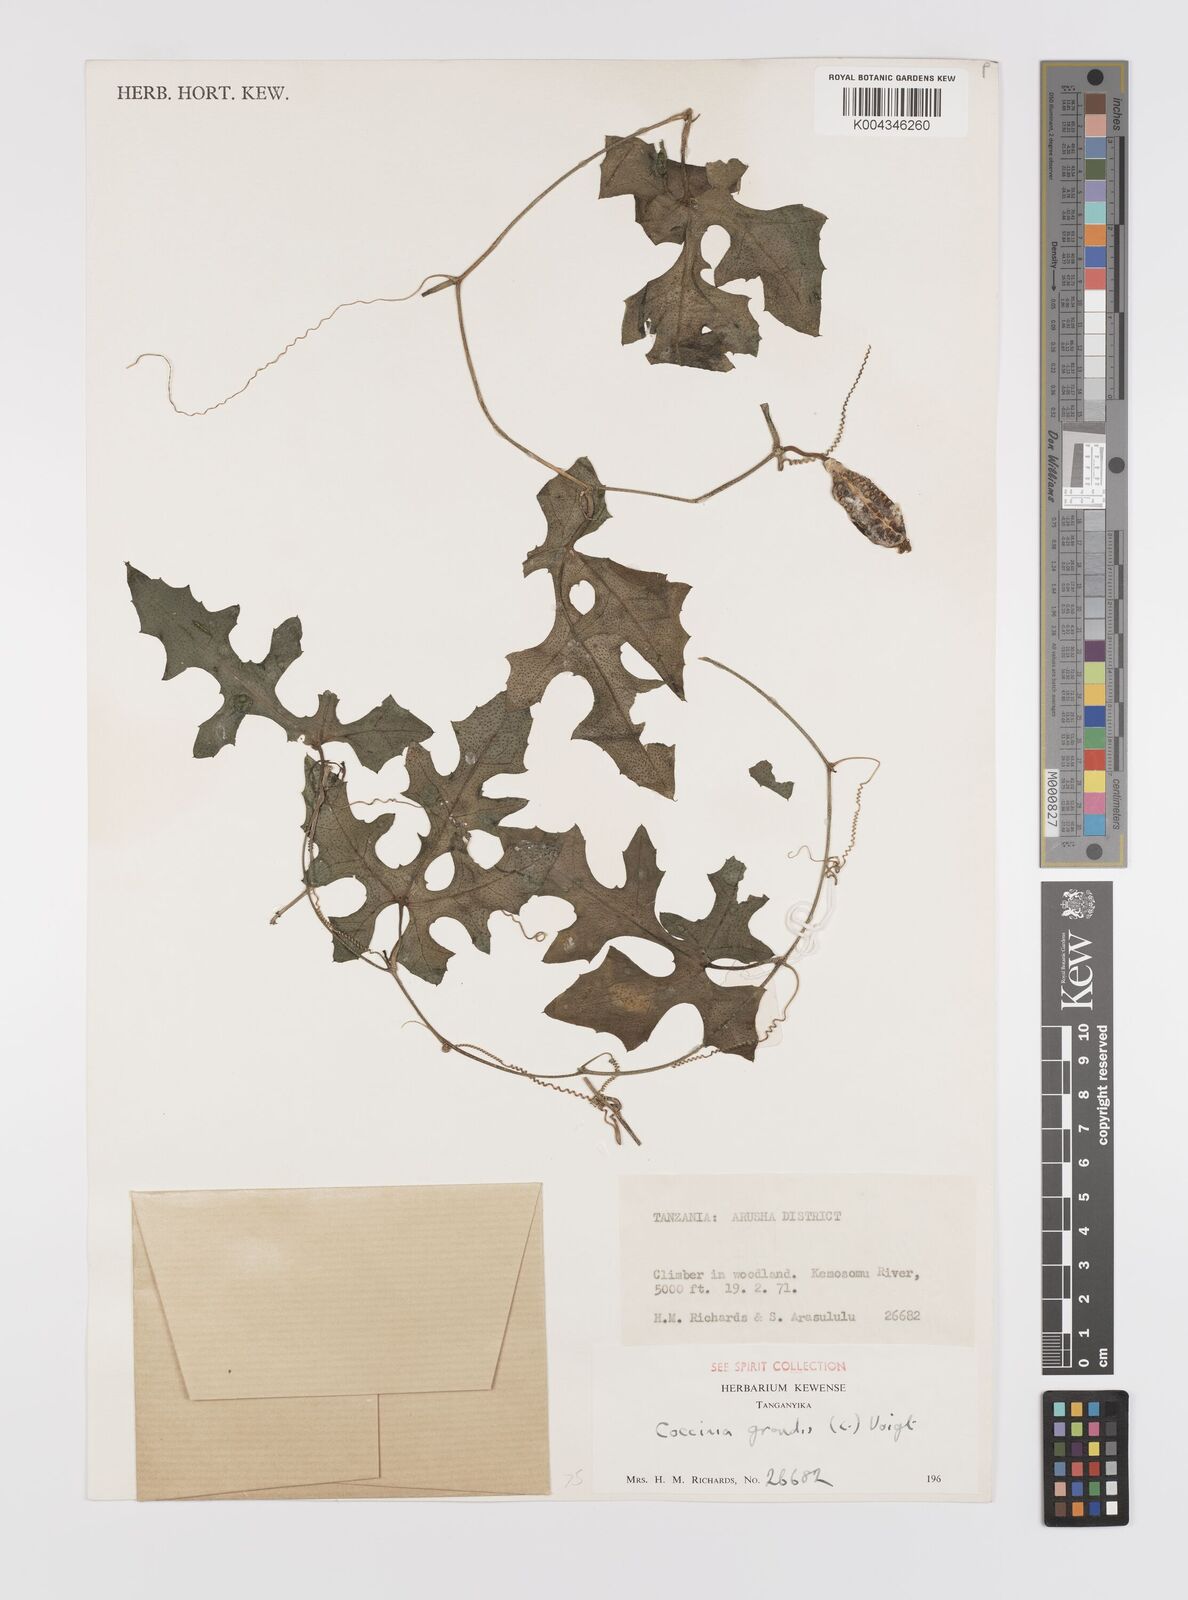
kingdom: Plantae
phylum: Tracheophyta
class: Magnoliopsida
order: Cucurbitales
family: Cucurbitaceae
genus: Coccinia
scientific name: Coccinia grandis
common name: Ivy gourd
